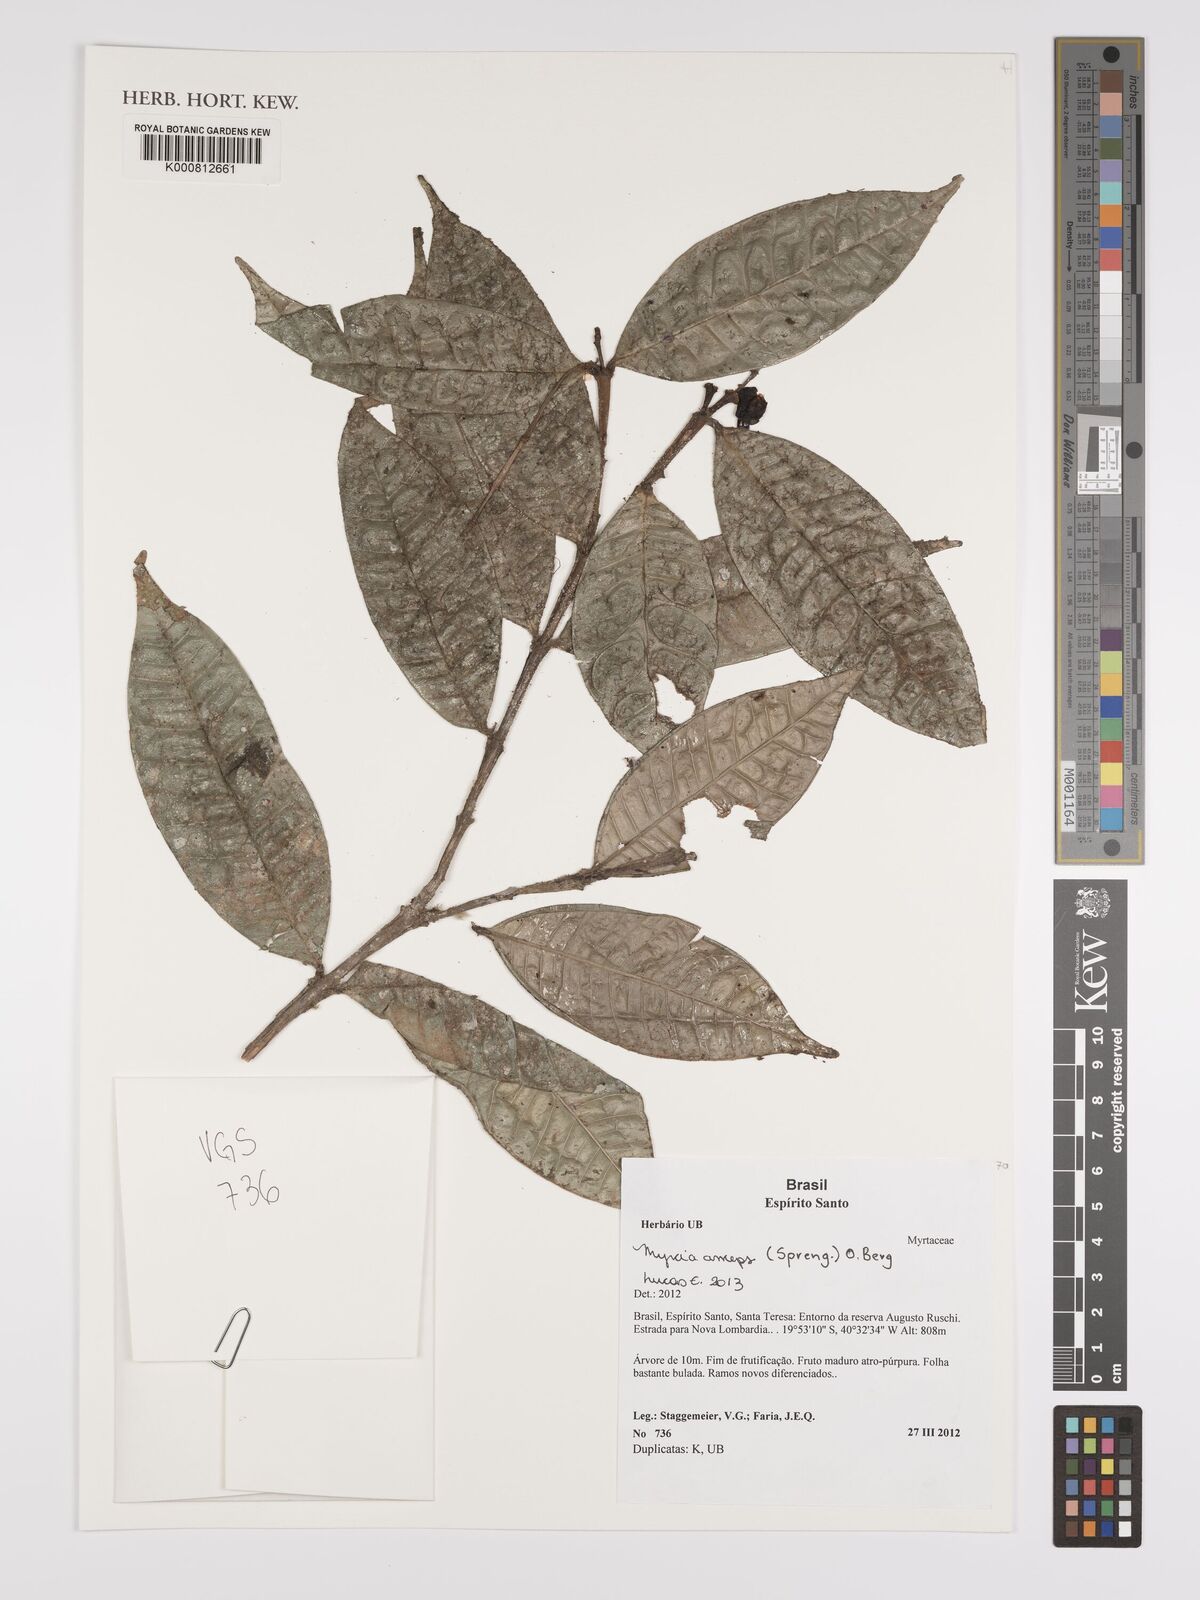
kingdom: Plantae
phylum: Tracheophyta
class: Magnoliopsida
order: Myrtales
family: Myrtaceae
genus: Myrcia
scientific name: Myrcia anceps
